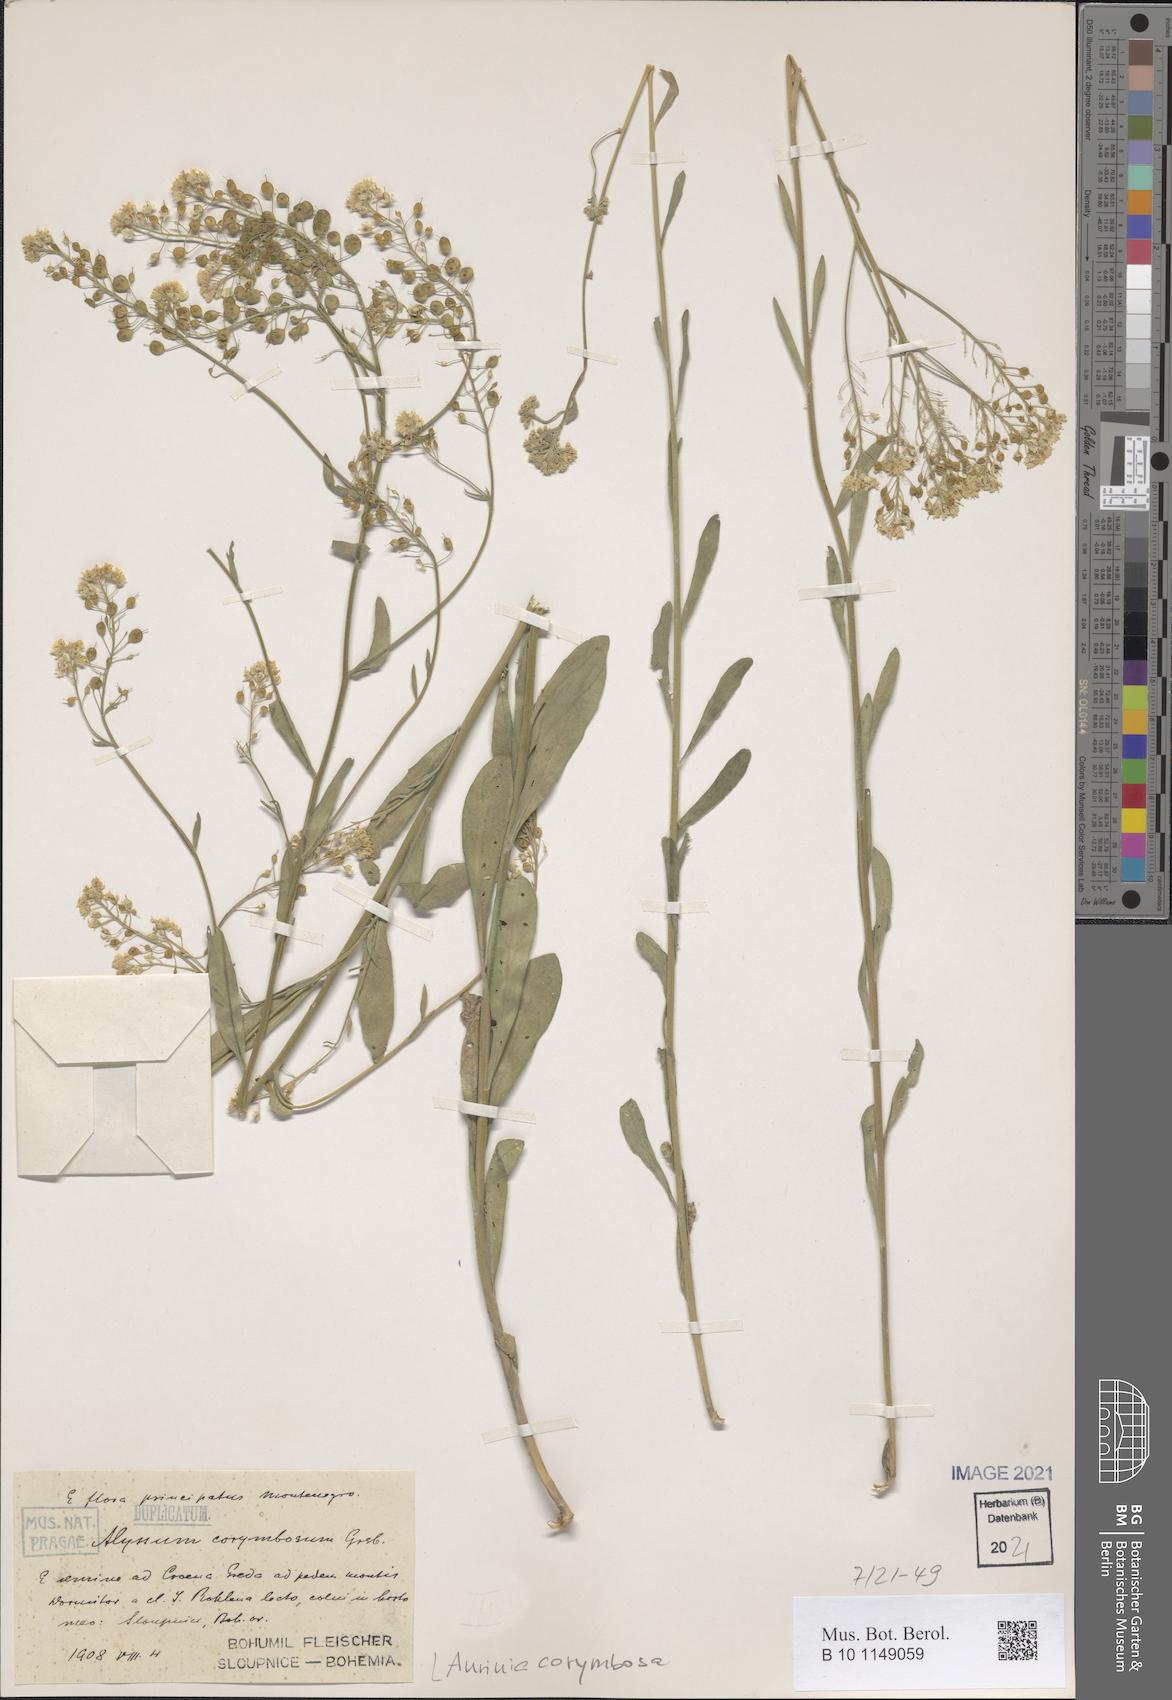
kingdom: Plantae
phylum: Tracheophyta
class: Magnoliopsida
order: Brassicales
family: Brassicaceae
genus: Aurinia
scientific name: Aurinia corymbosa
